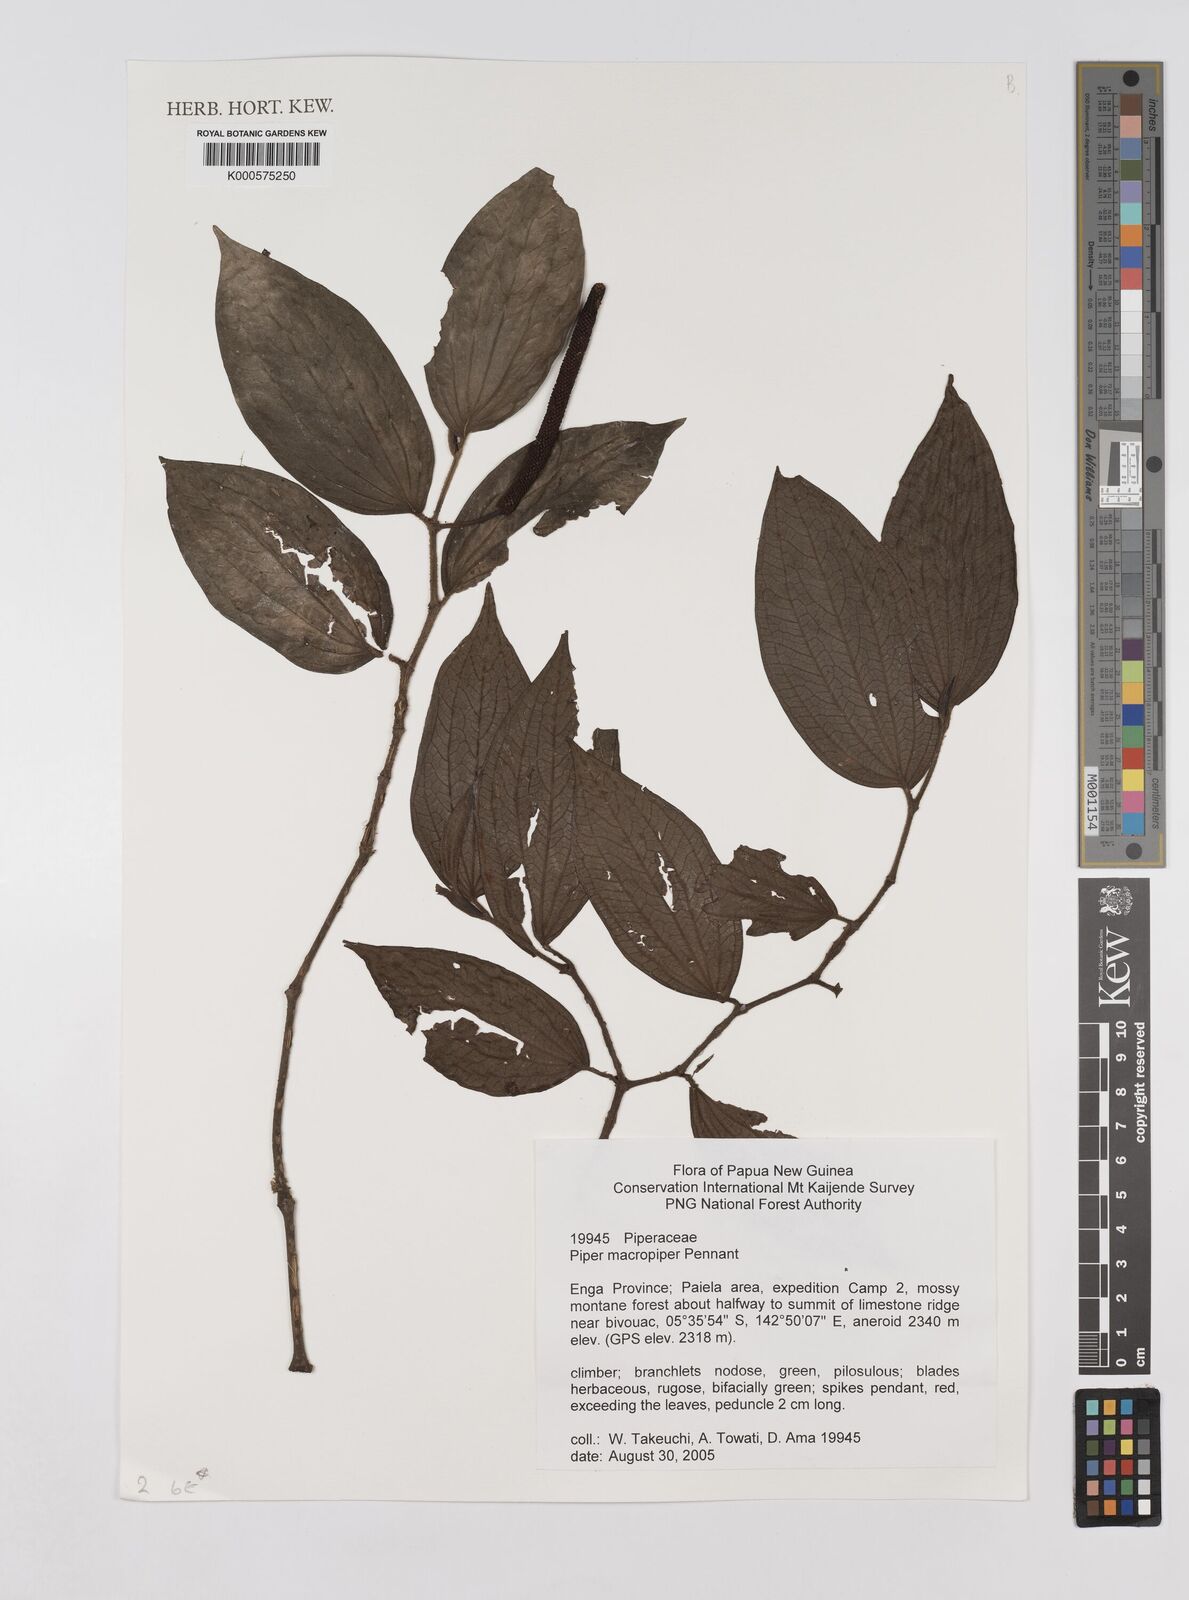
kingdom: Plantae
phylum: Tracheophyta
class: Magnoliopsida
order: Piperales
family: Piperaceae
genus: Piper
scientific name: Piper macropiper
